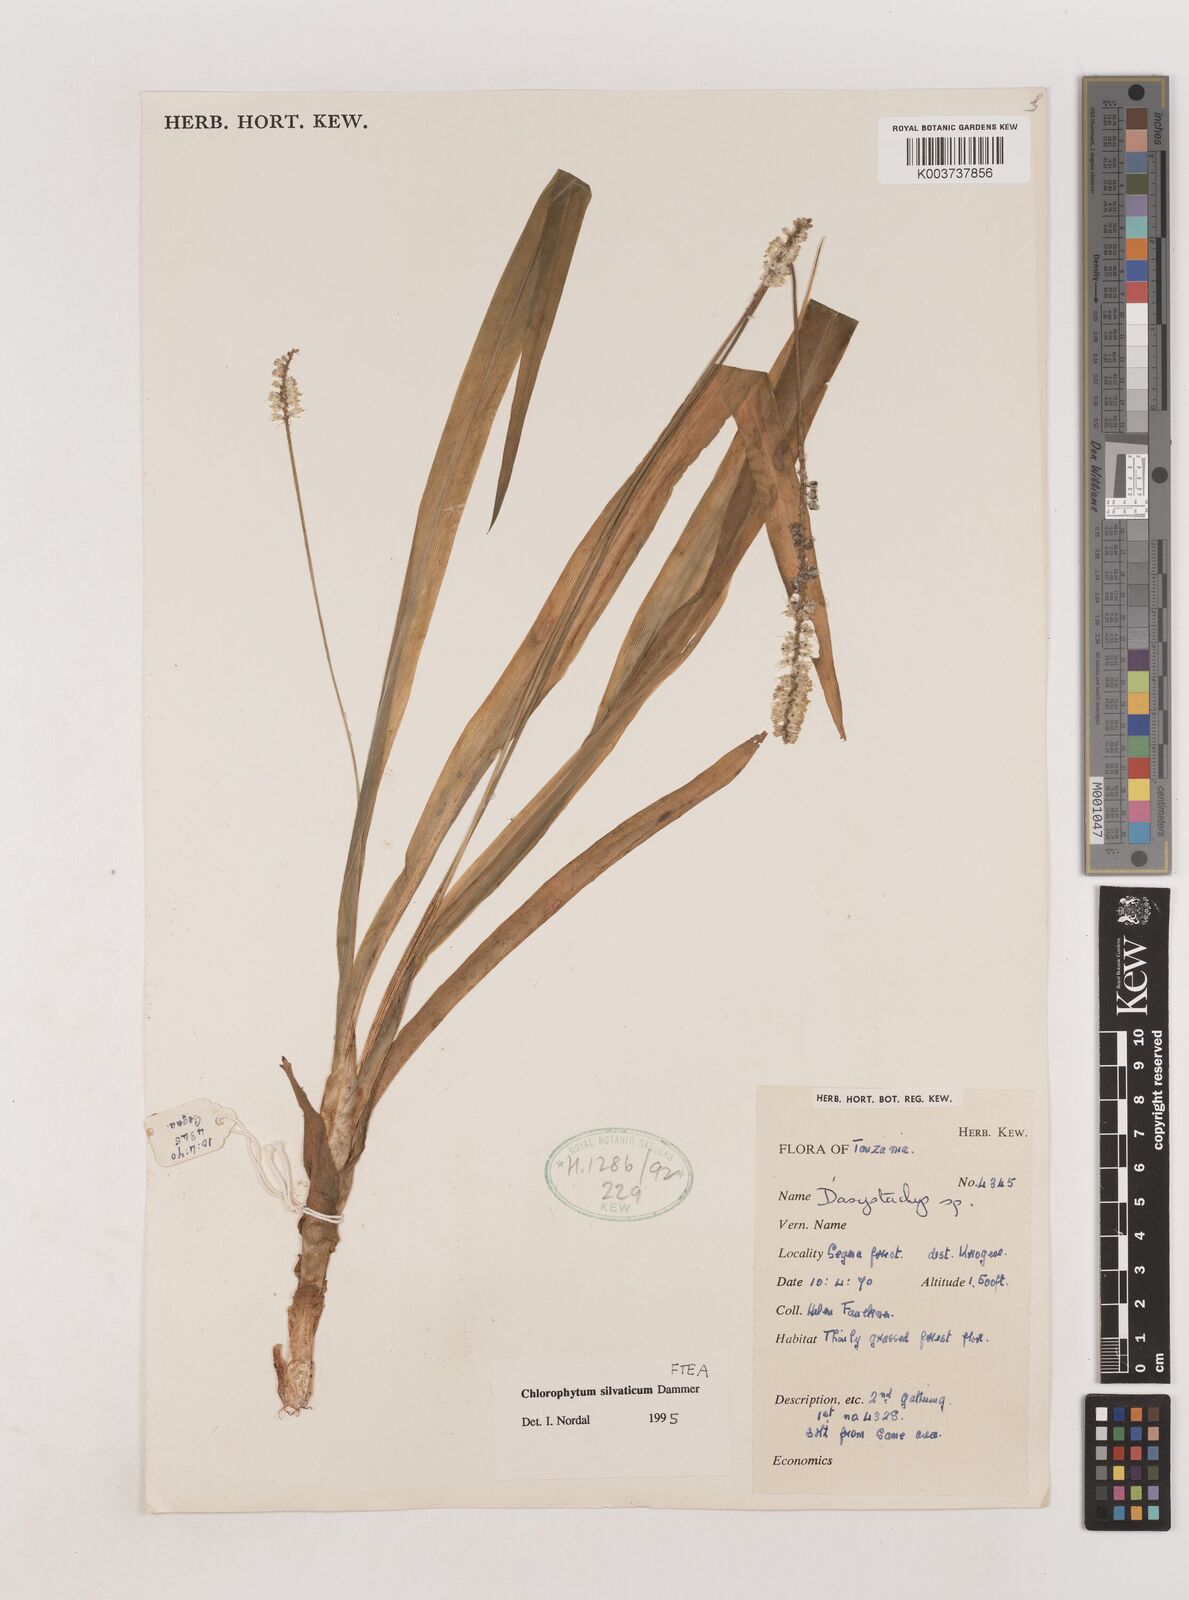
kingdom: Plantae
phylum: Tracheophyta
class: Liliopsida
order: Asparagales
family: Asparagaceae
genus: Chlorophytum
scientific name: Chlorophytum africanum
